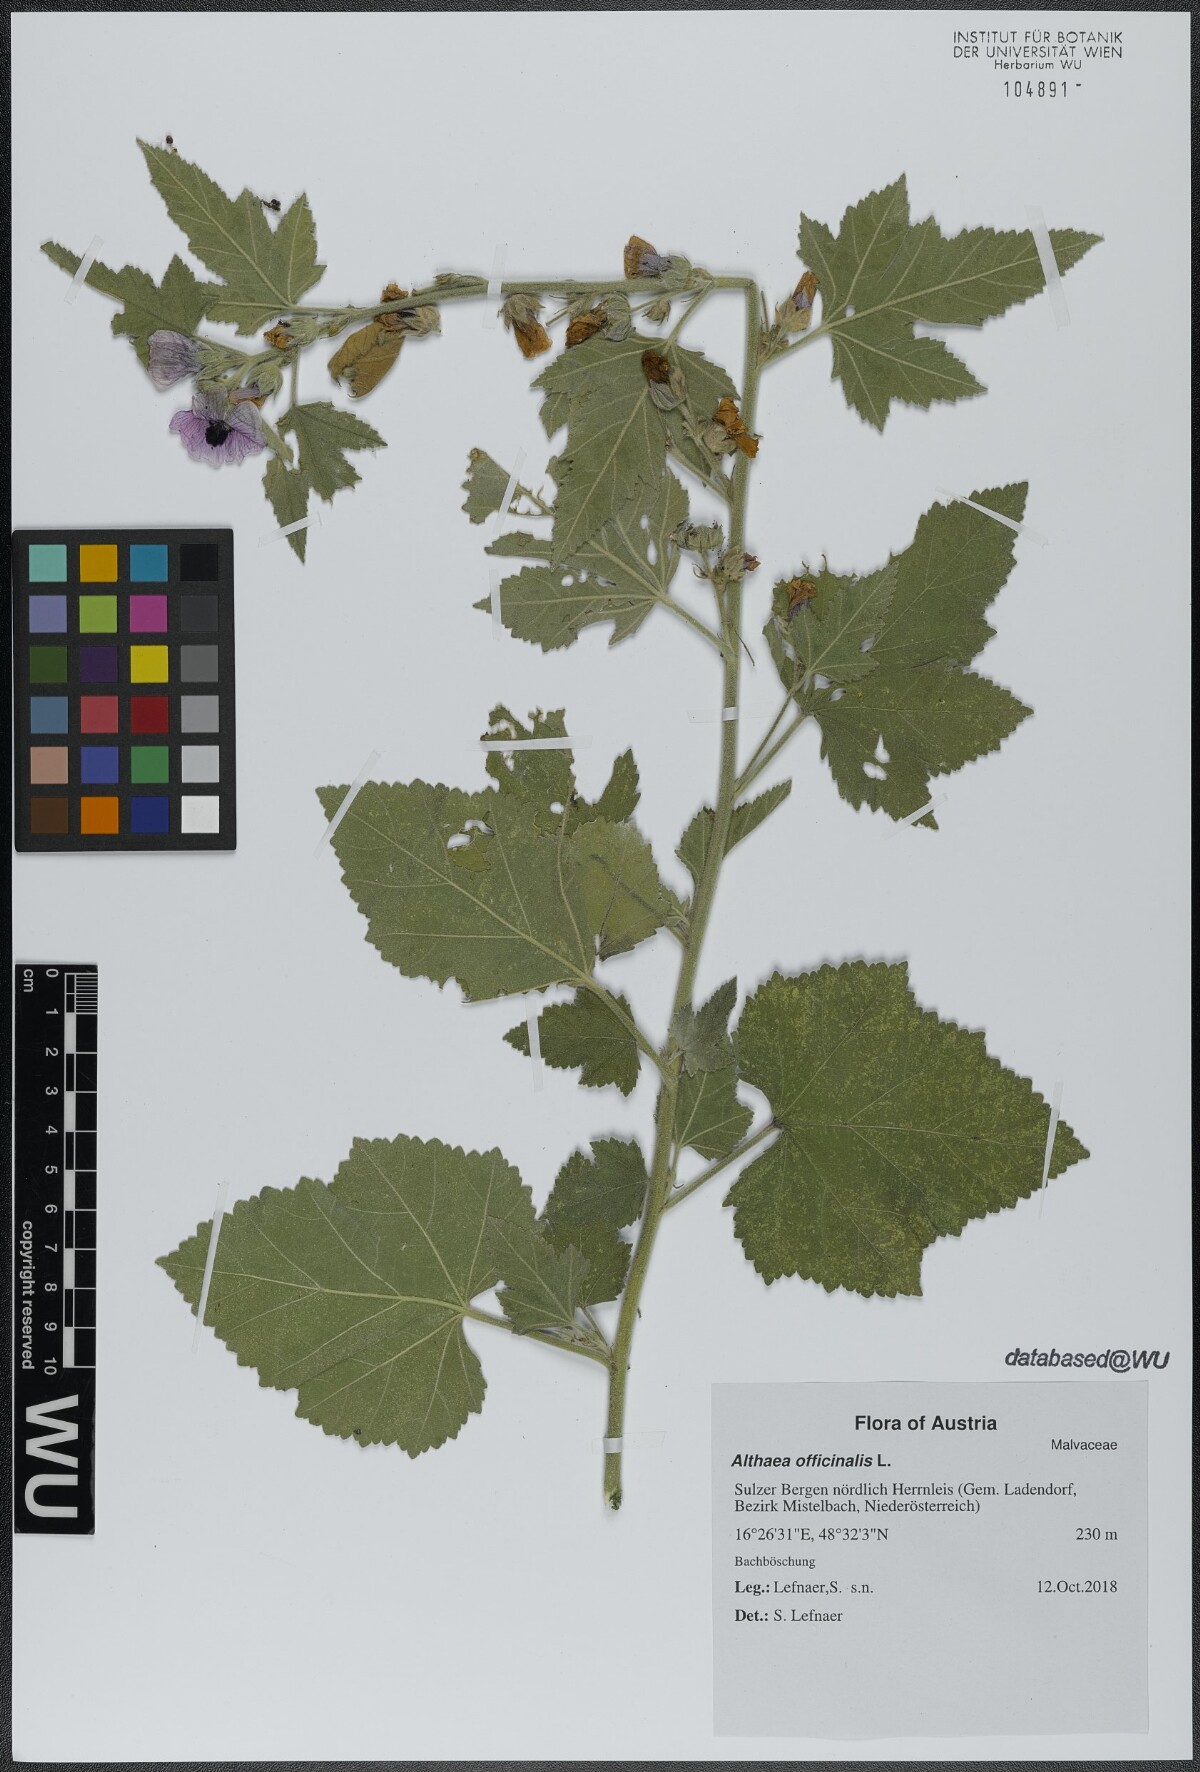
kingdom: Plantae
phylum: Tracheophyta
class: Magnoliopsida
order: Malvales
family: Malvaceae
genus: Althaea
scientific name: Althaea taurinensis
